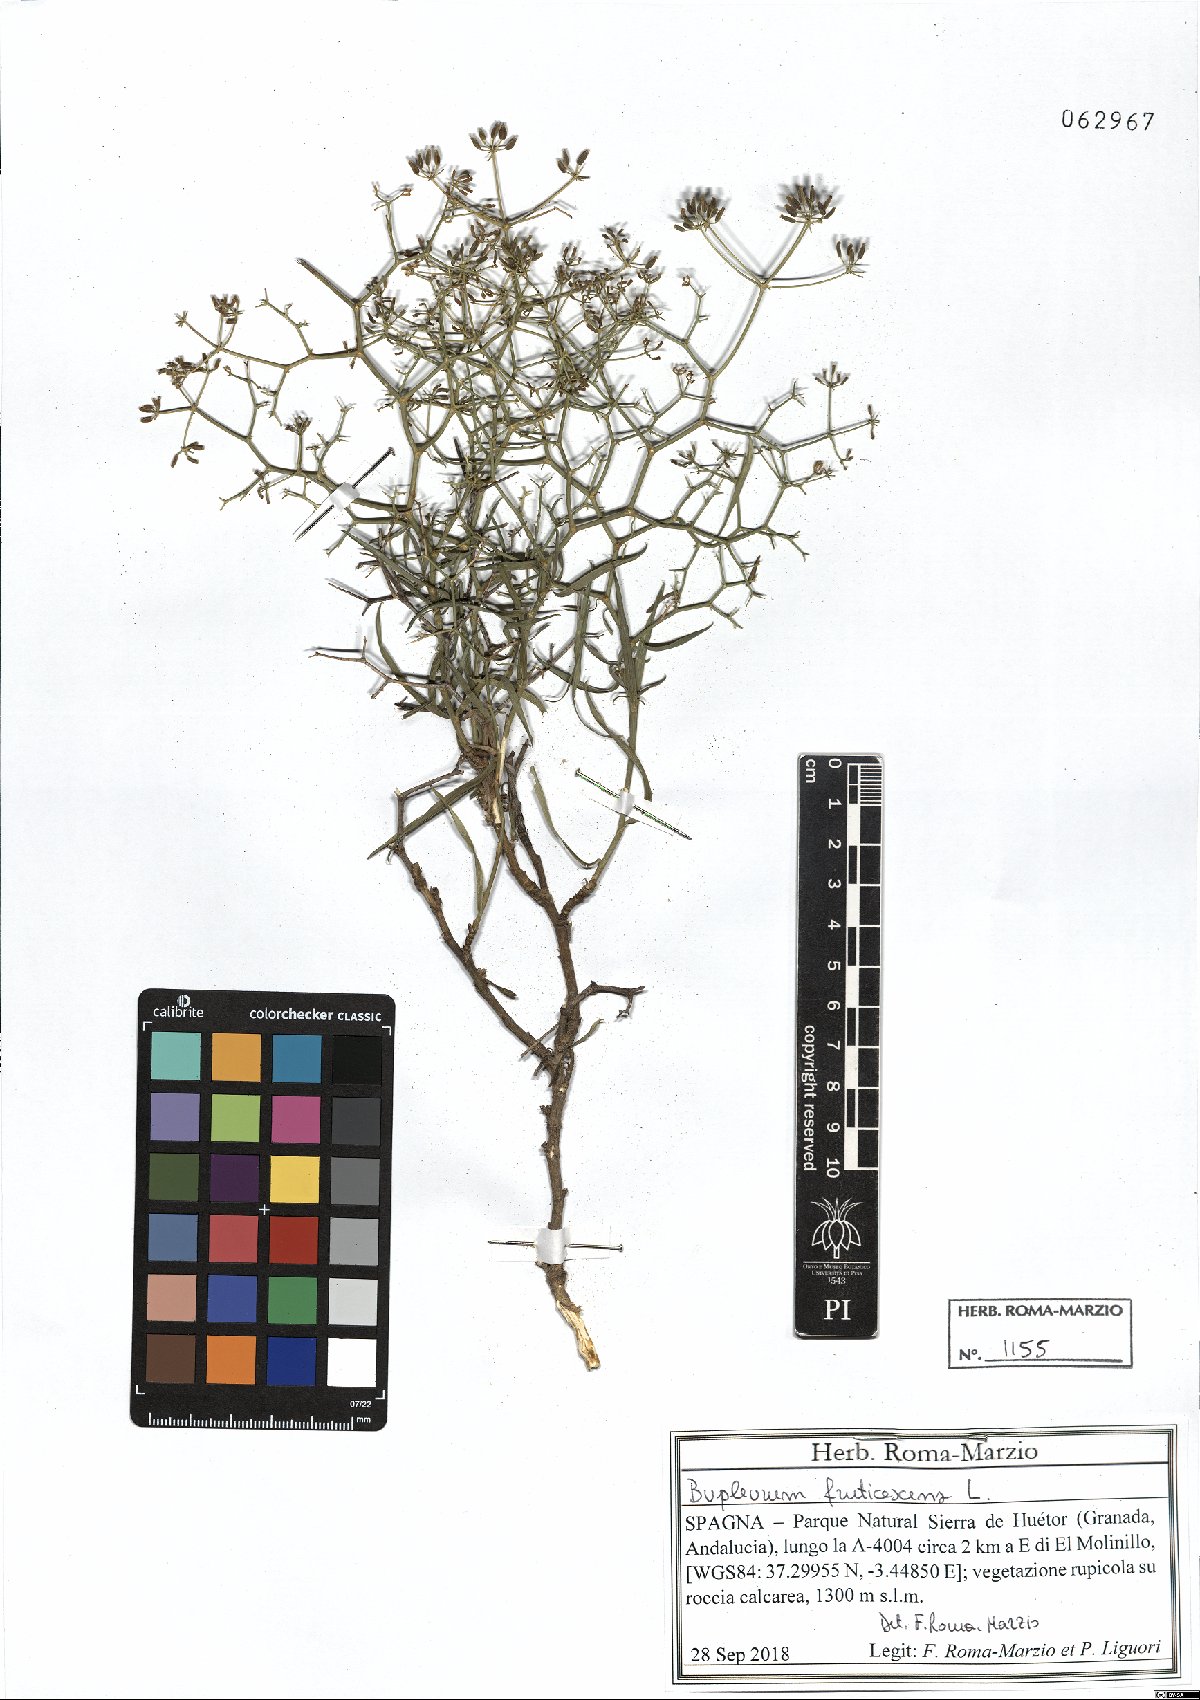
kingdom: Plantae
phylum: Tracheophyta
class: Magnoliopsida
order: Apiales
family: Apiaceae
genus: Bupleurum
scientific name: Bupleurum fruticescens
